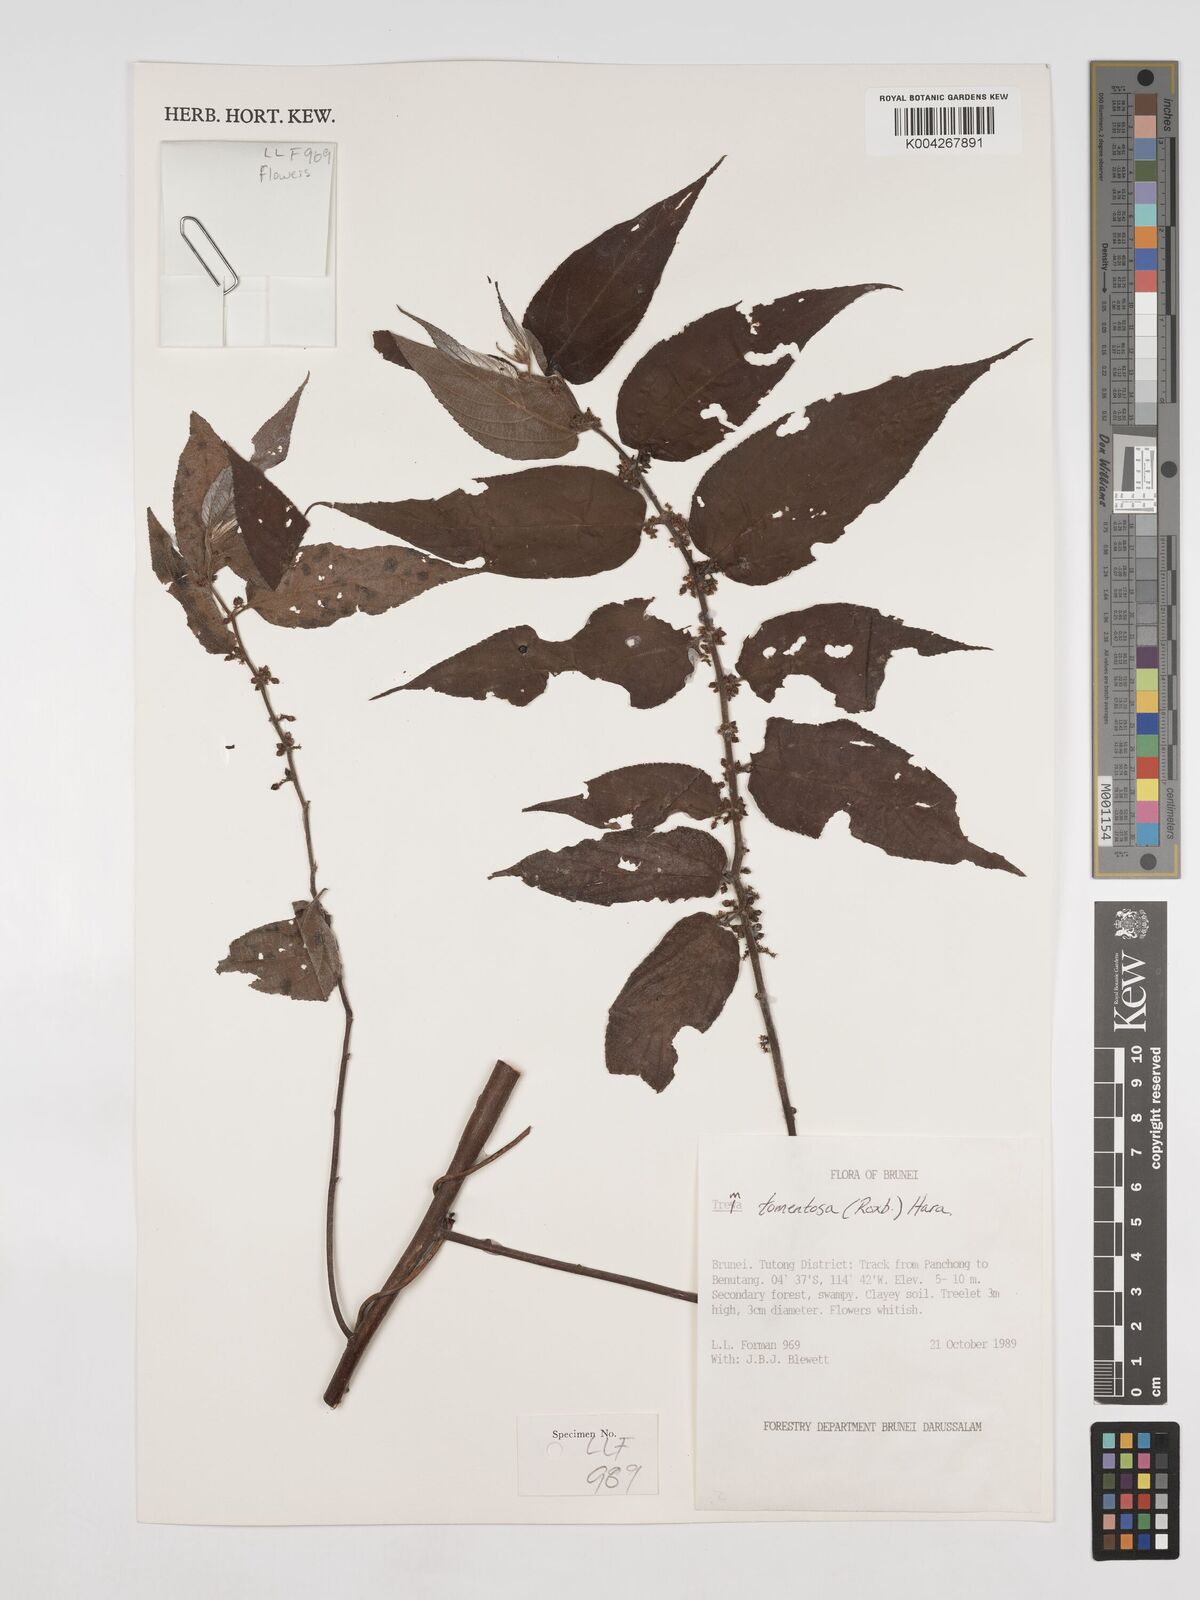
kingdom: Plantae
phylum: Tracheophyta
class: Magnoliopsida
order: Rosales
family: Cannabaceae
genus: Trema
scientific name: Trema tomentosum
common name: Peach-leaf-poisonbush
